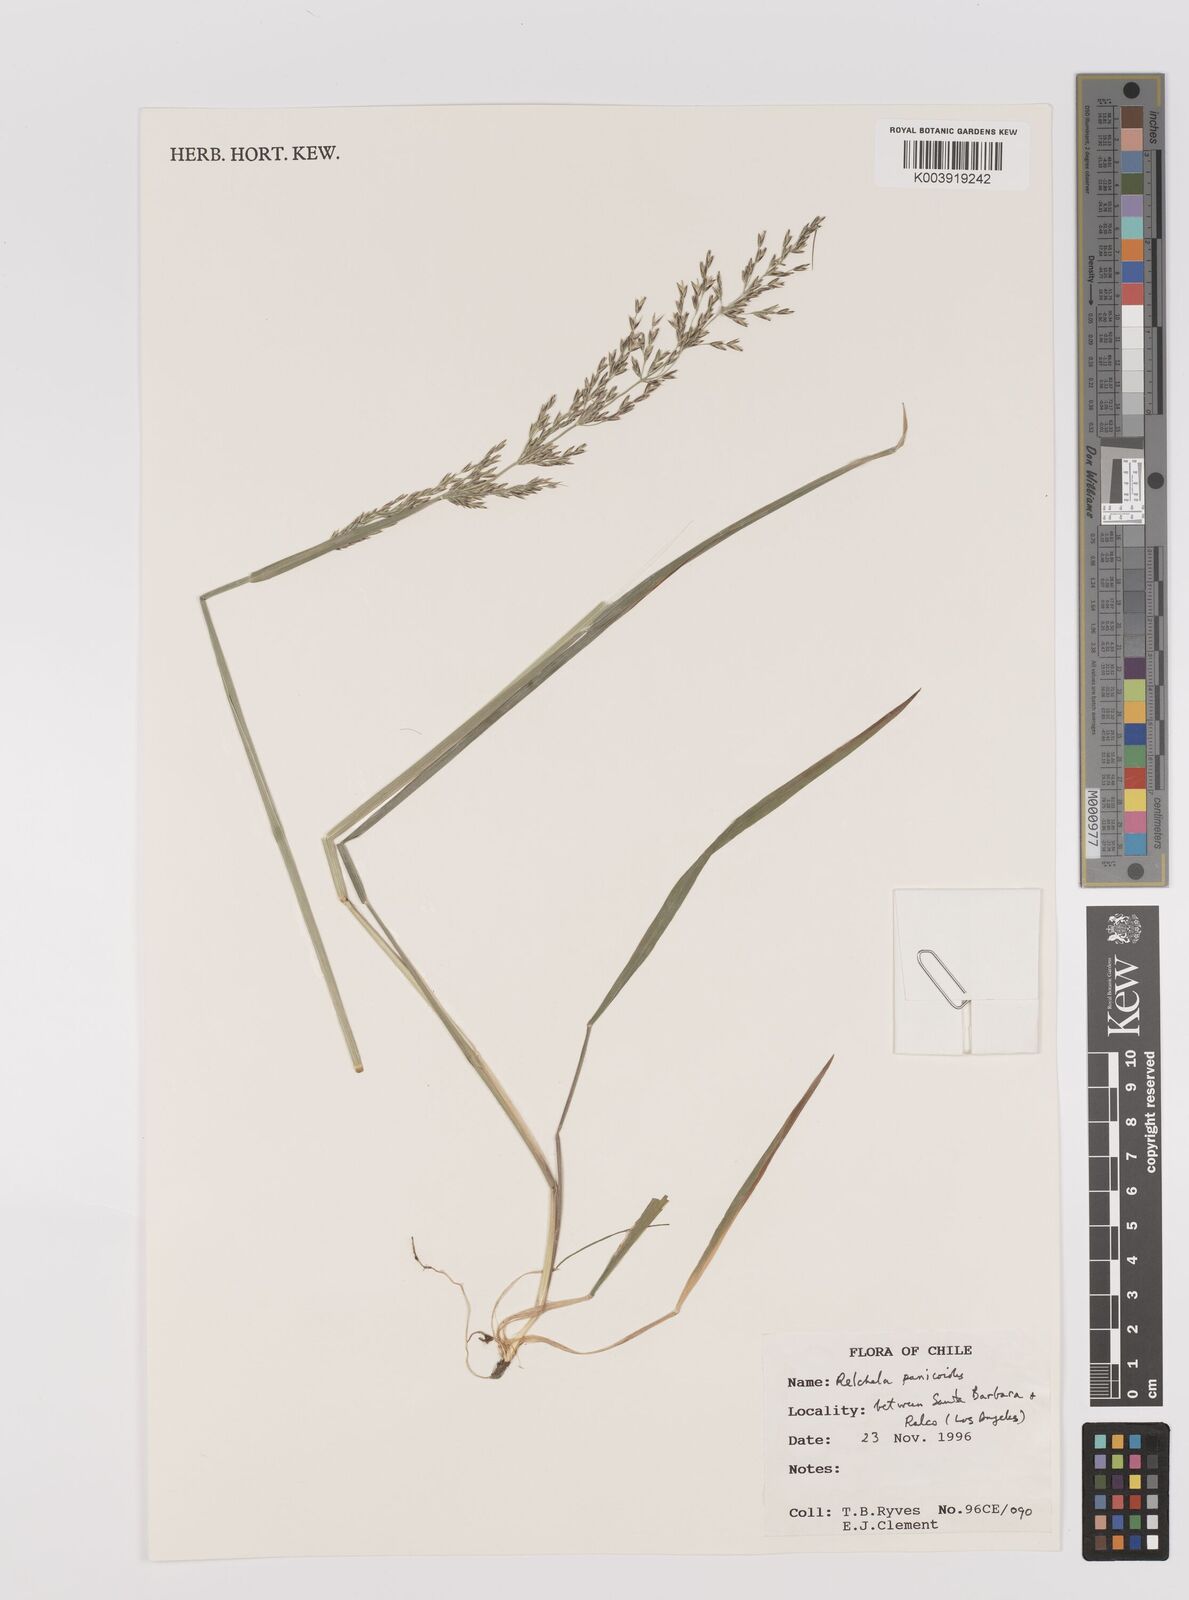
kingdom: Plantae
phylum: Tracheophyta
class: Liliopsida
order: Poales
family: Poaceae
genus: Relchela
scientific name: Relchela panicoides
